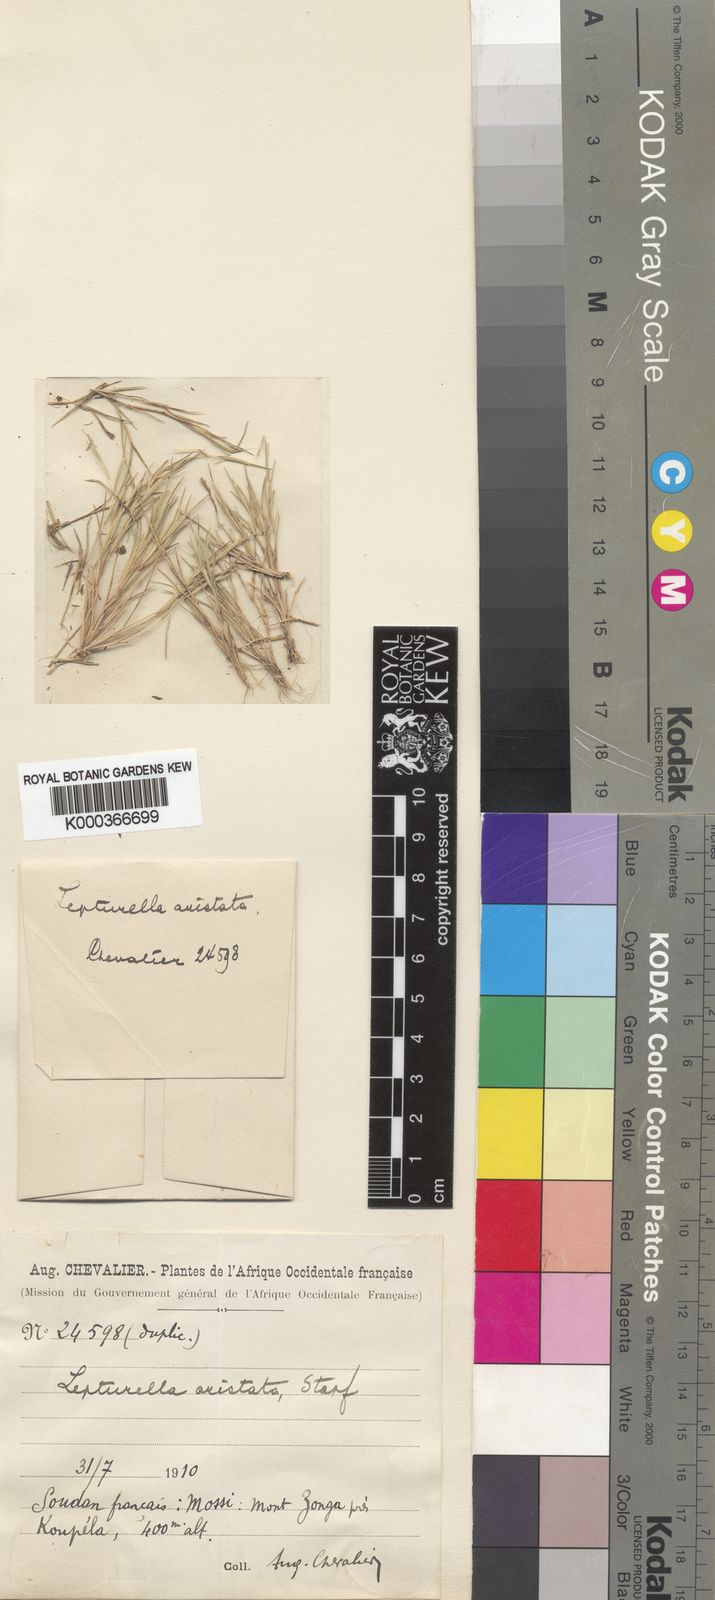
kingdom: Plantae
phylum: Tracheophyta
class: Liliopsida
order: Poales
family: Poaceae
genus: Oropetium
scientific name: Oropetium aristatum
